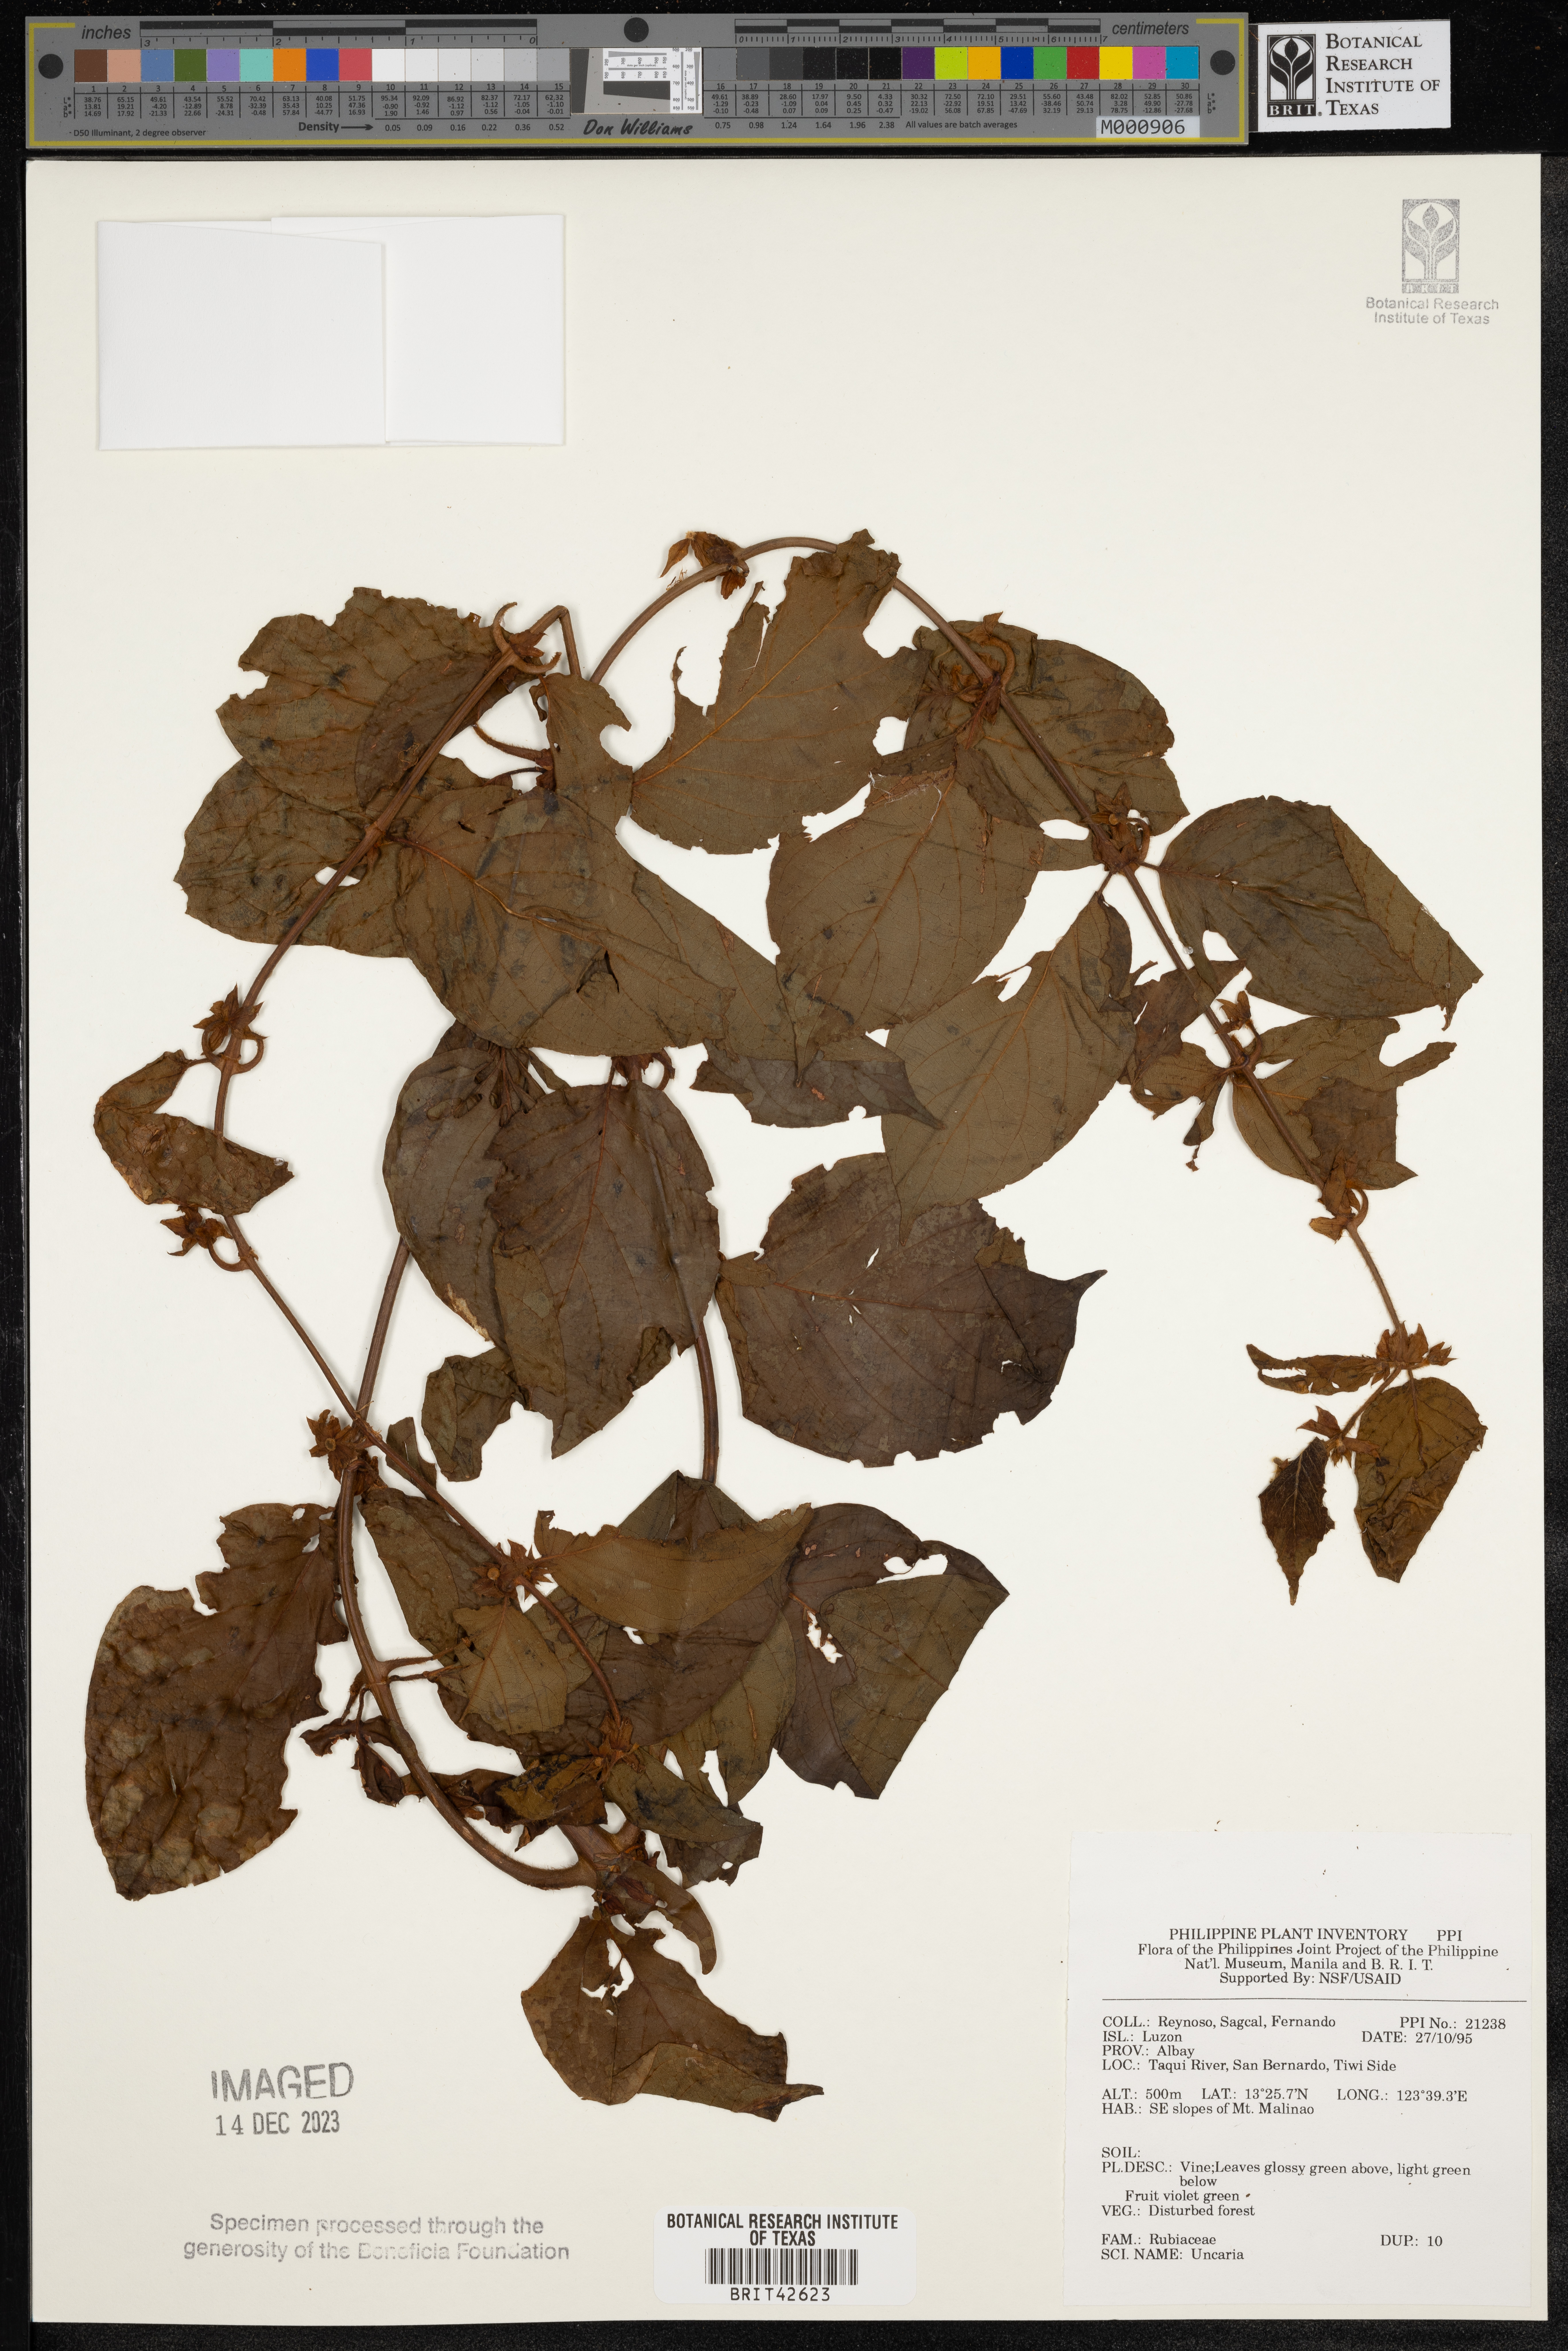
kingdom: Plantae
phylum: Tracheophyta
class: Magnoliopsida
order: Gentianales
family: Rubiaceae
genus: Uncaria
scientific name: Uncaria
